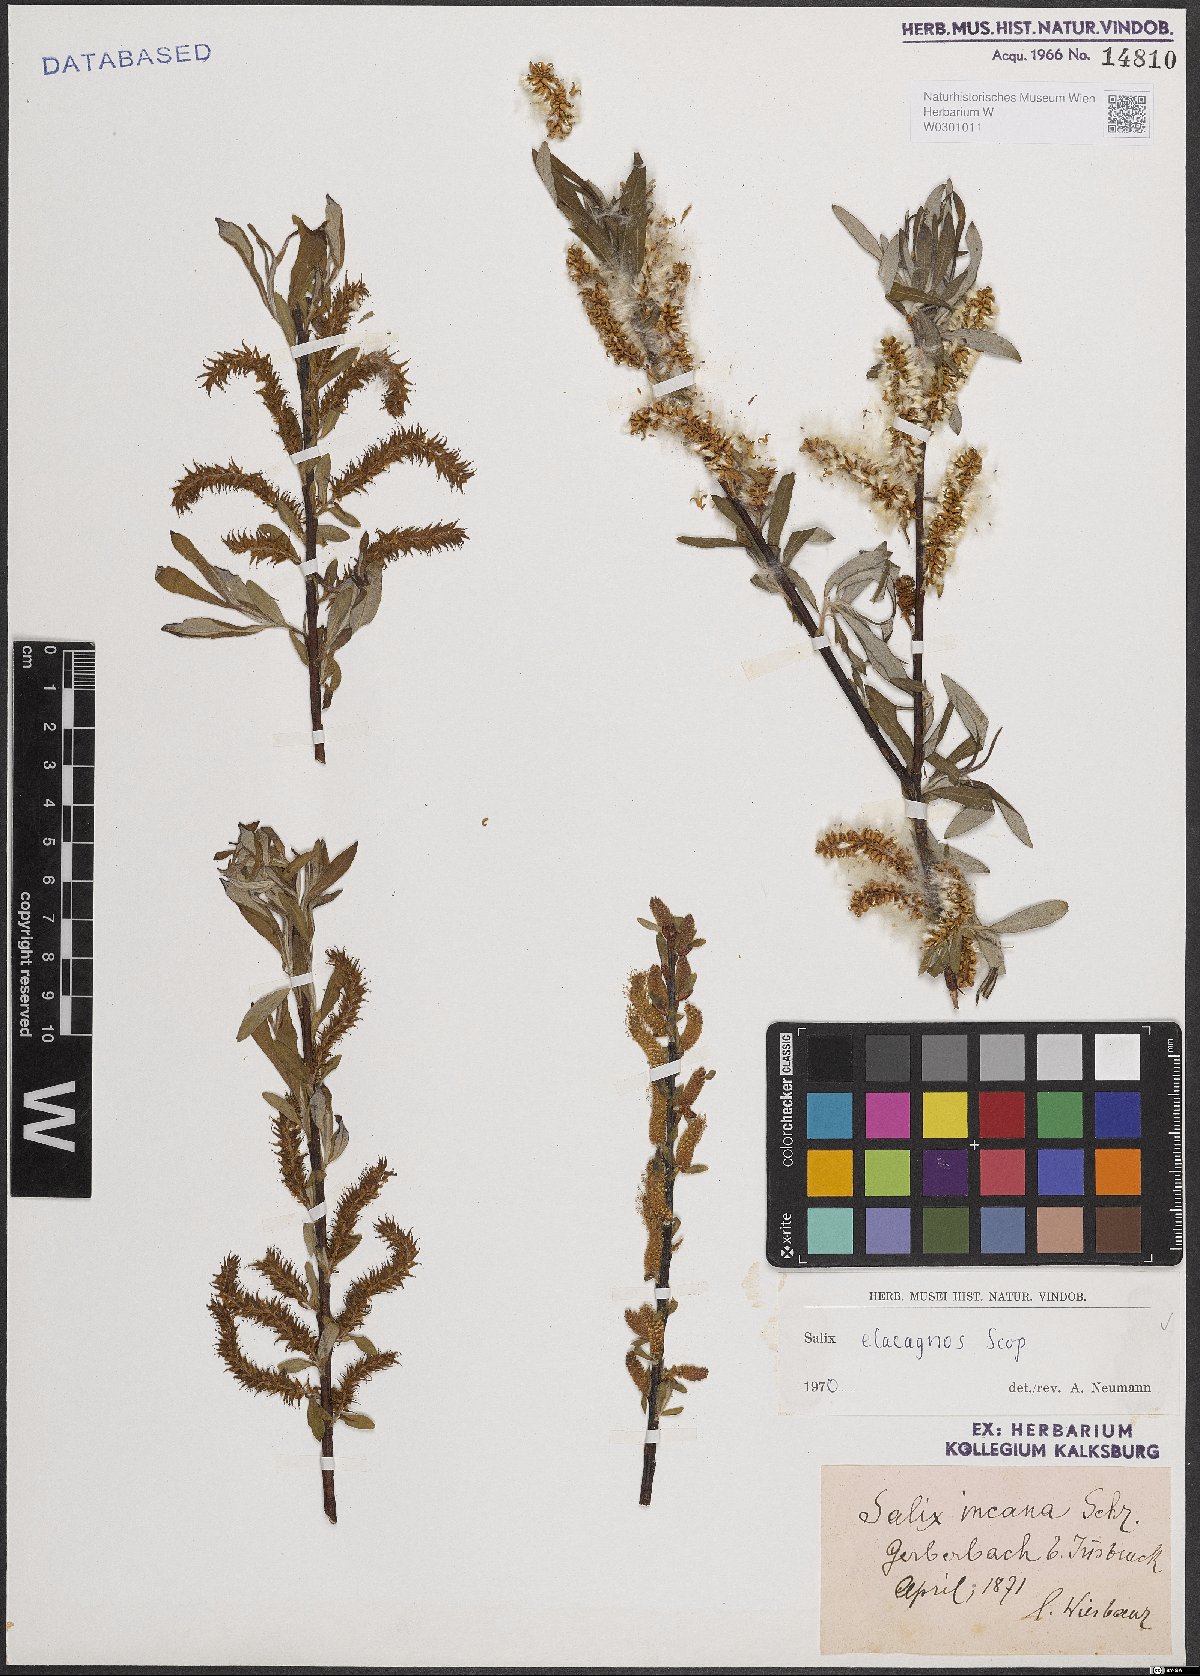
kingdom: Plantae
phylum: Tracheophyta
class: Magnoliopsida
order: Malpighiales
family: Salicaceae
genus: Salix
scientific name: Salix eleagnos
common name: Elaeagnus willow
